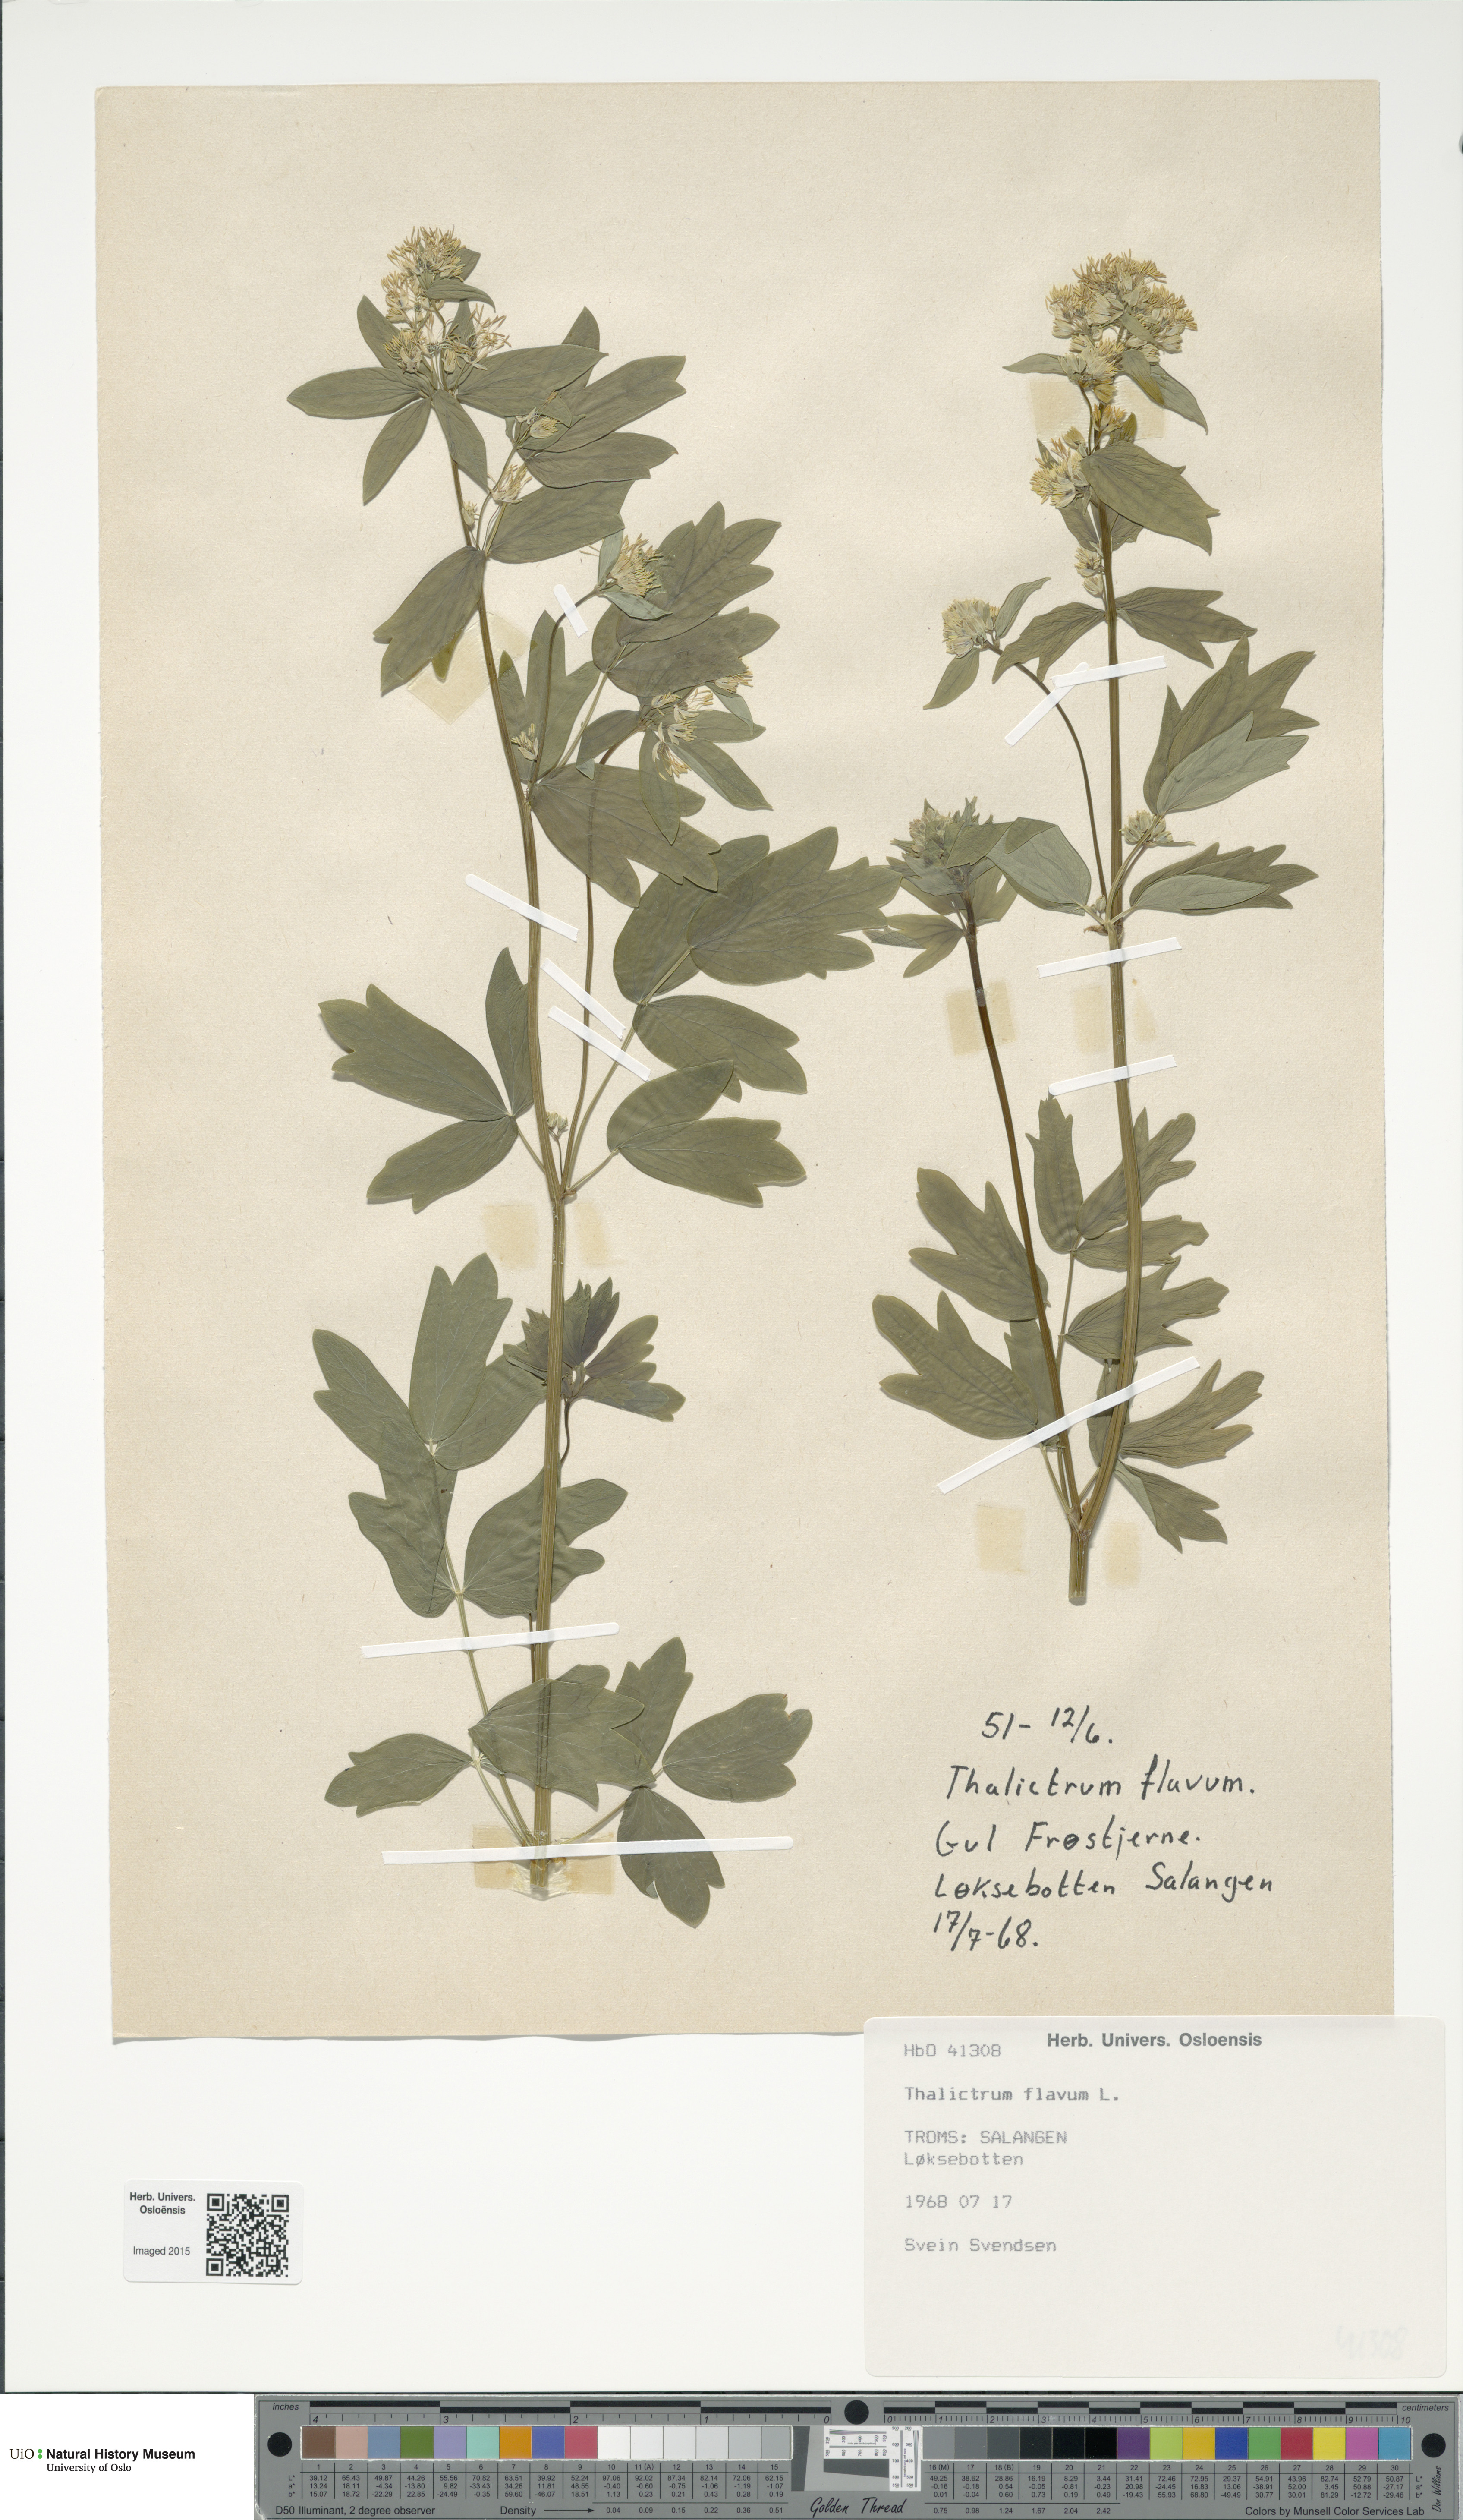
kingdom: Plantae
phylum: Tracheophyta
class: Magnoliopsida
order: Ranunculales
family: Ranunculaceae
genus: Thalictrum
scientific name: Thalictrum flavum
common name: Common meadow-rue
